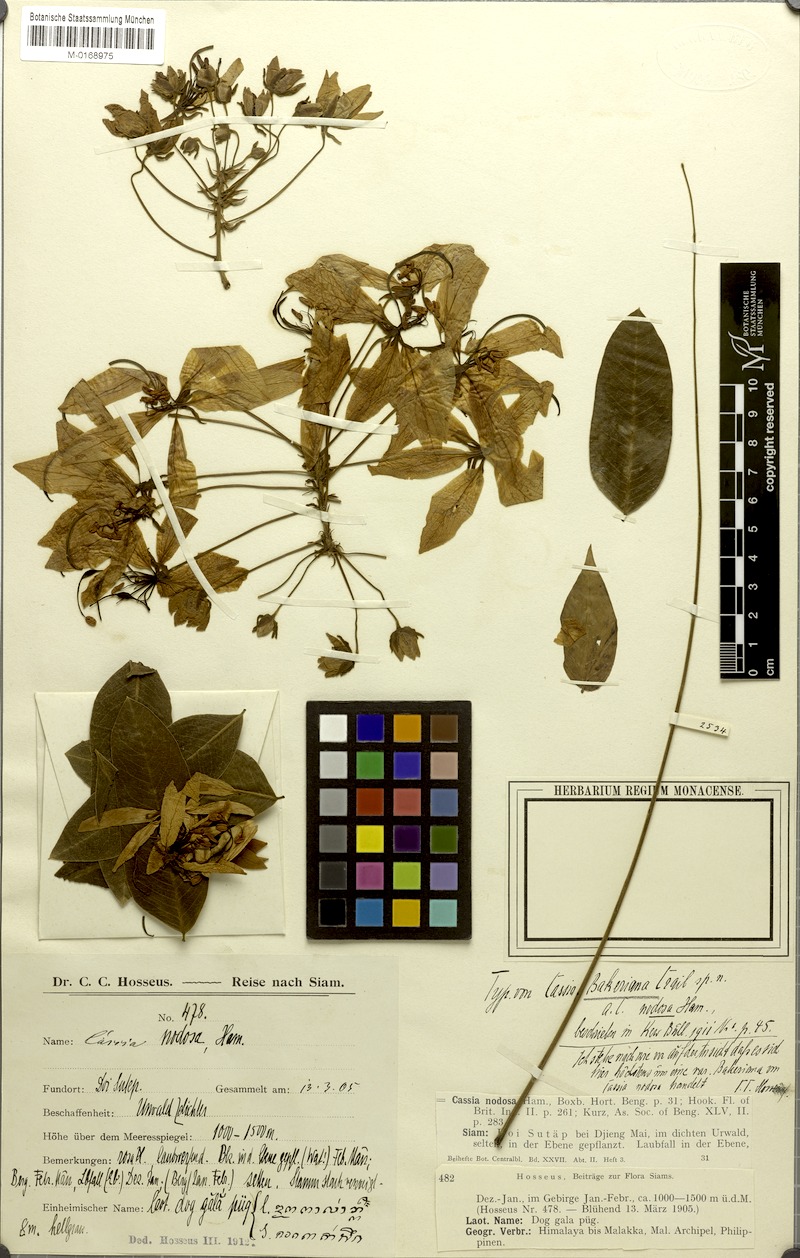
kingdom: Plantae
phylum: Tracheophyta
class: Magnoliopsida
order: Fabales
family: Fabaceae
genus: Cassia
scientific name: Cassia bakeriana
